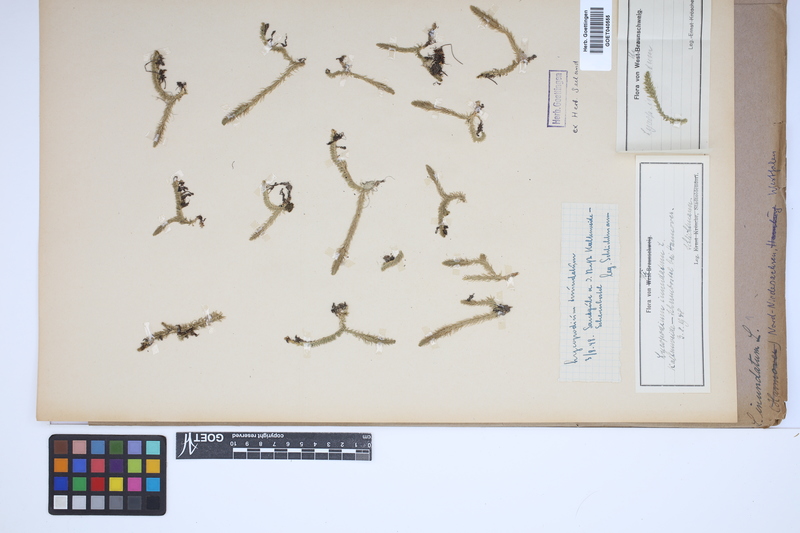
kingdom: Plantae
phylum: Tracheophyta
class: Lycopodiopsida
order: Lycopodiales
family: Lycopodiaceae
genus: Lycopodiella
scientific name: Lycopodiella inundata
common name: Marsh clubmoss
